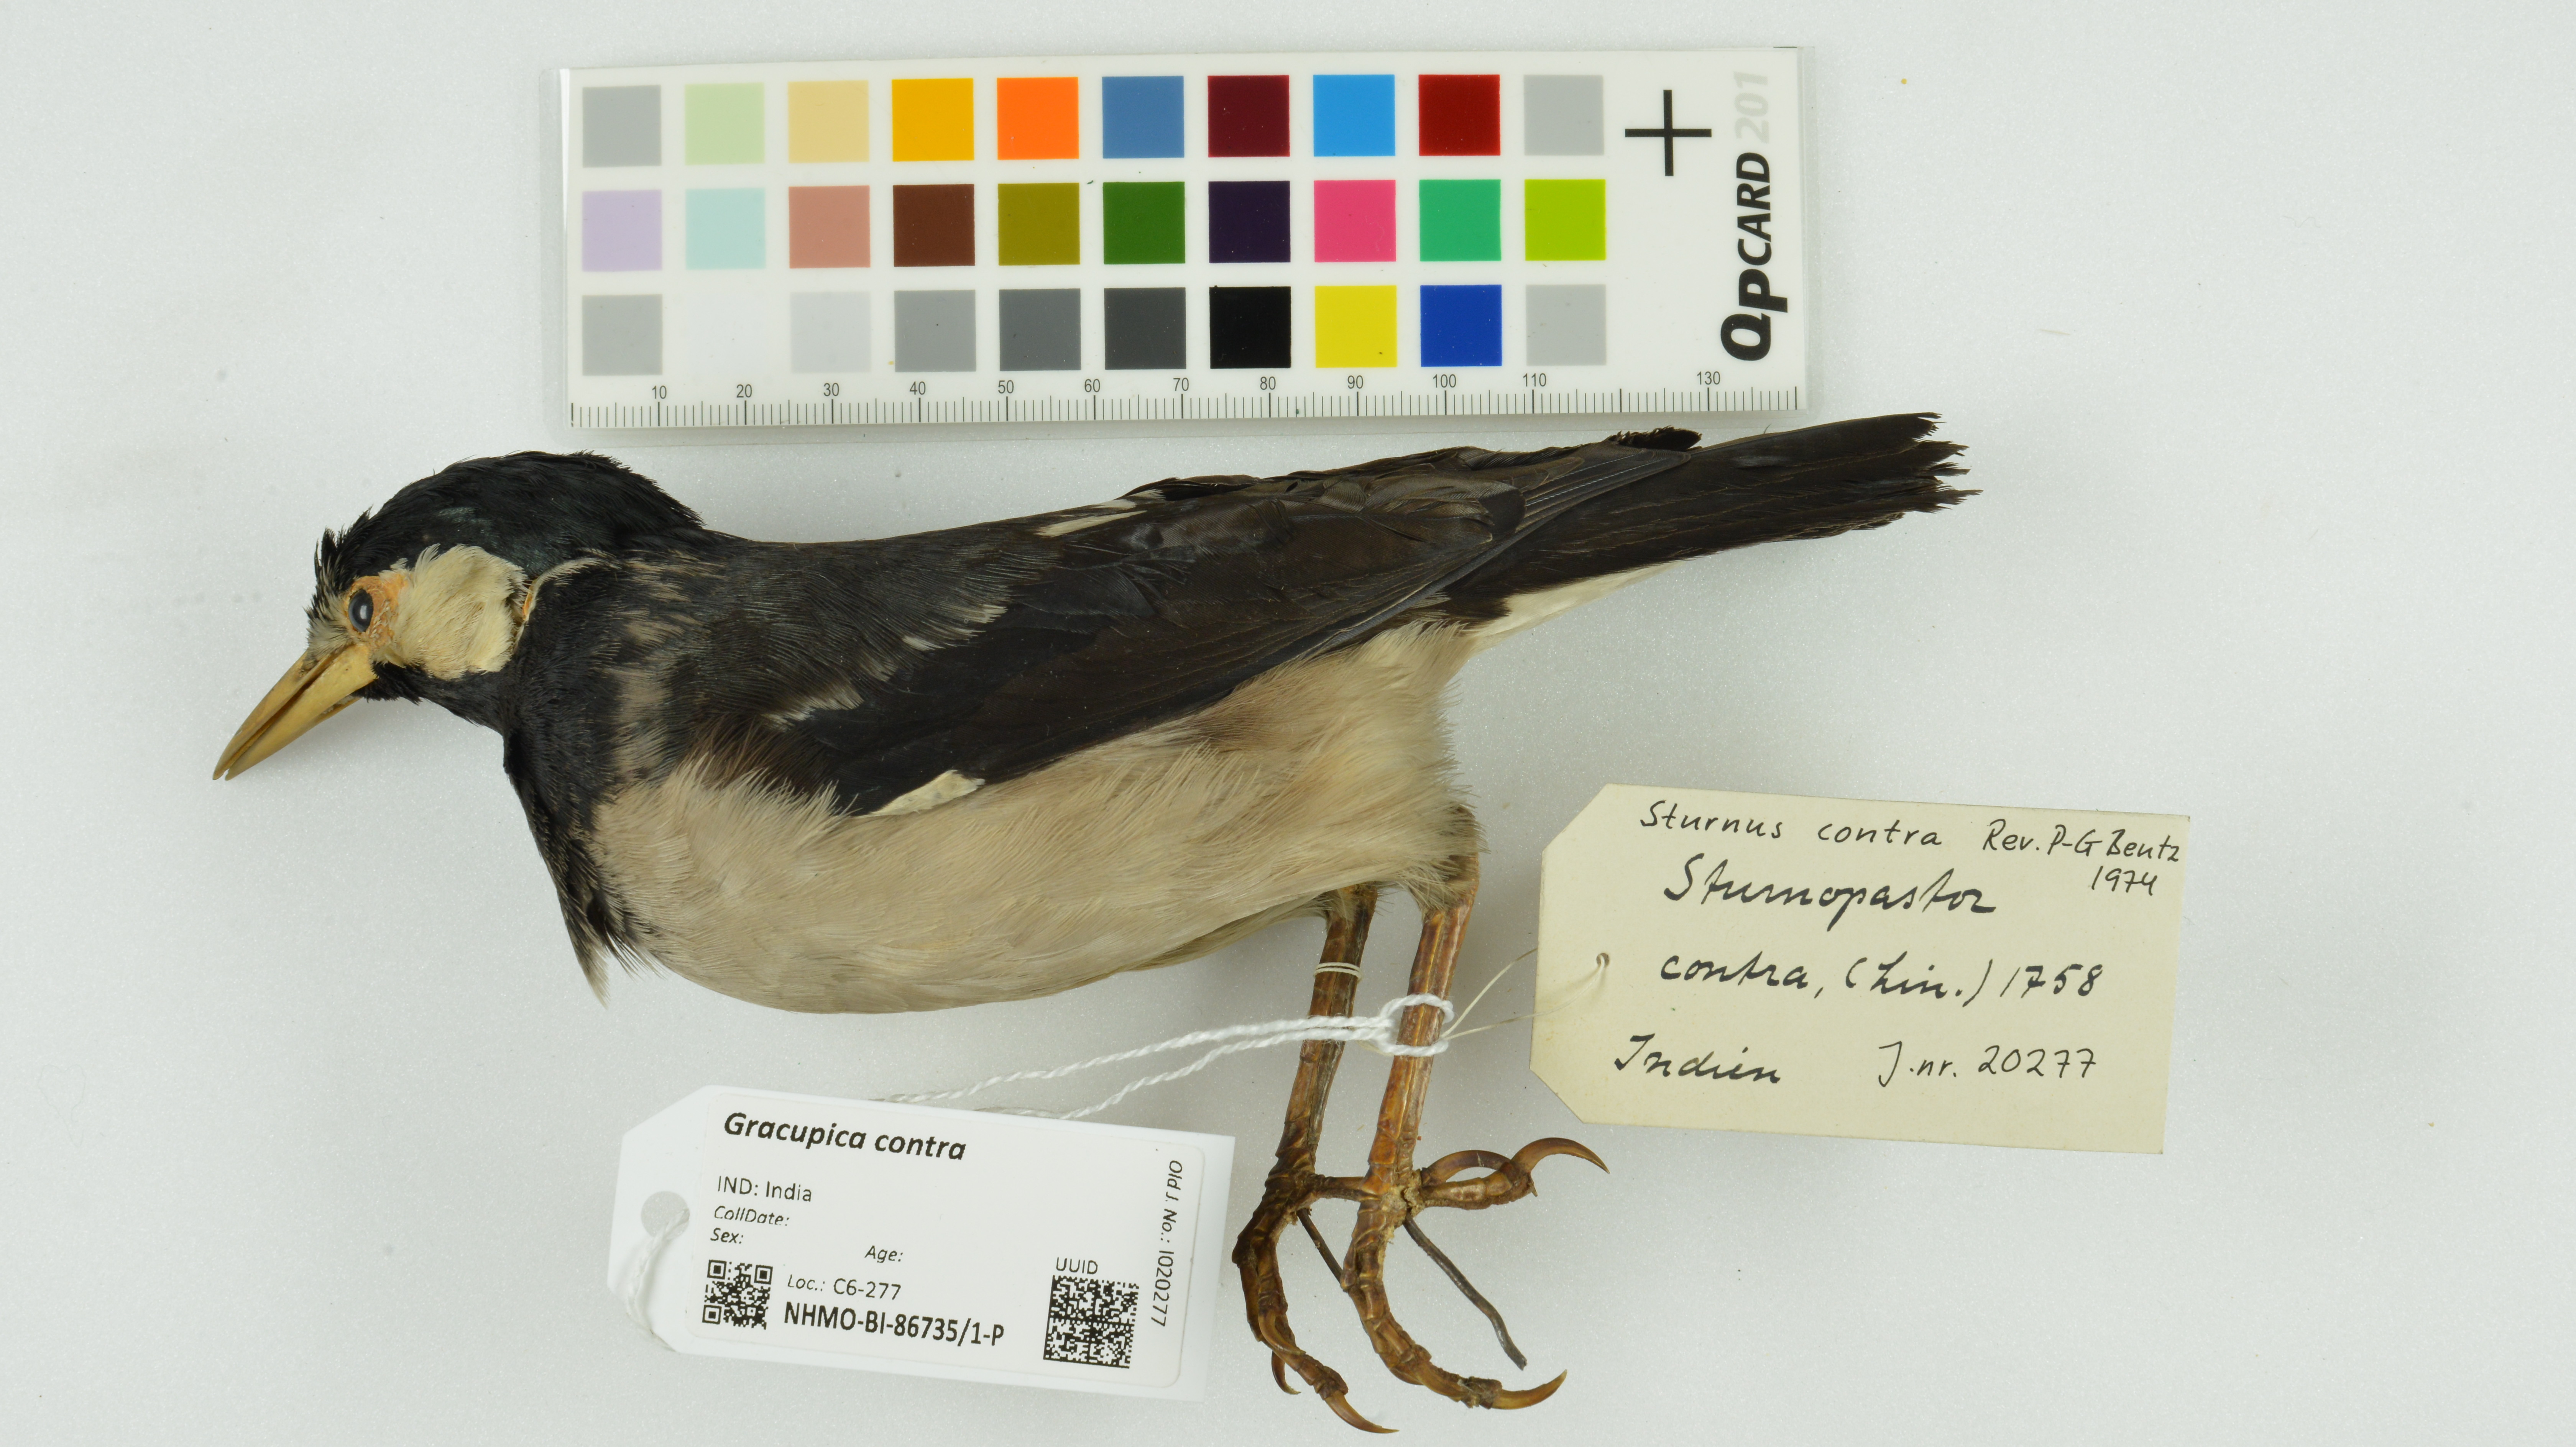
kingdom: Animalia
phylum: Chordata
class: Aves
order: Passeriformes
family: Sturnidae
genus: Gracupica
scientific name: Gracupica contra
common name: Pied myna
